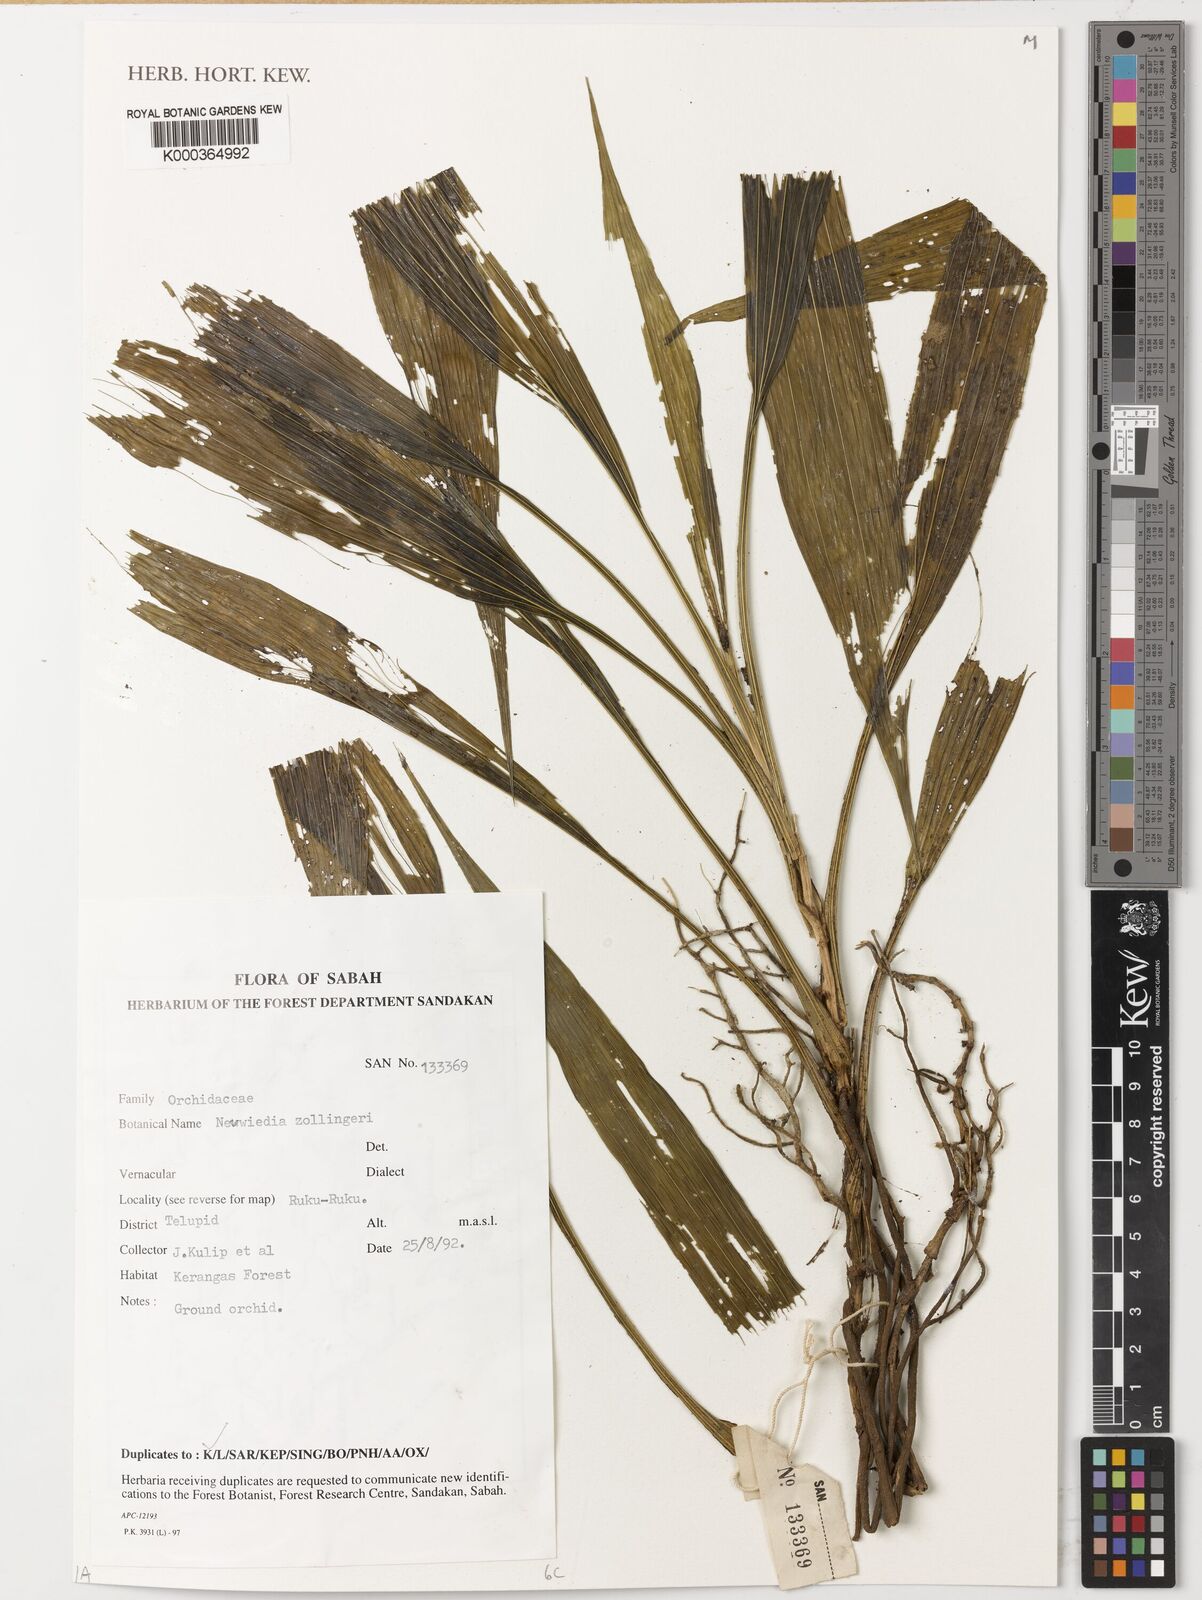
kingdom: Plantae
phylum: Tracheophyta
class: Liliopsida
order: Asparagales
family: Orchidaceae
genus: Neuwiedia
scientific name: Neuwiedia zollingeri
